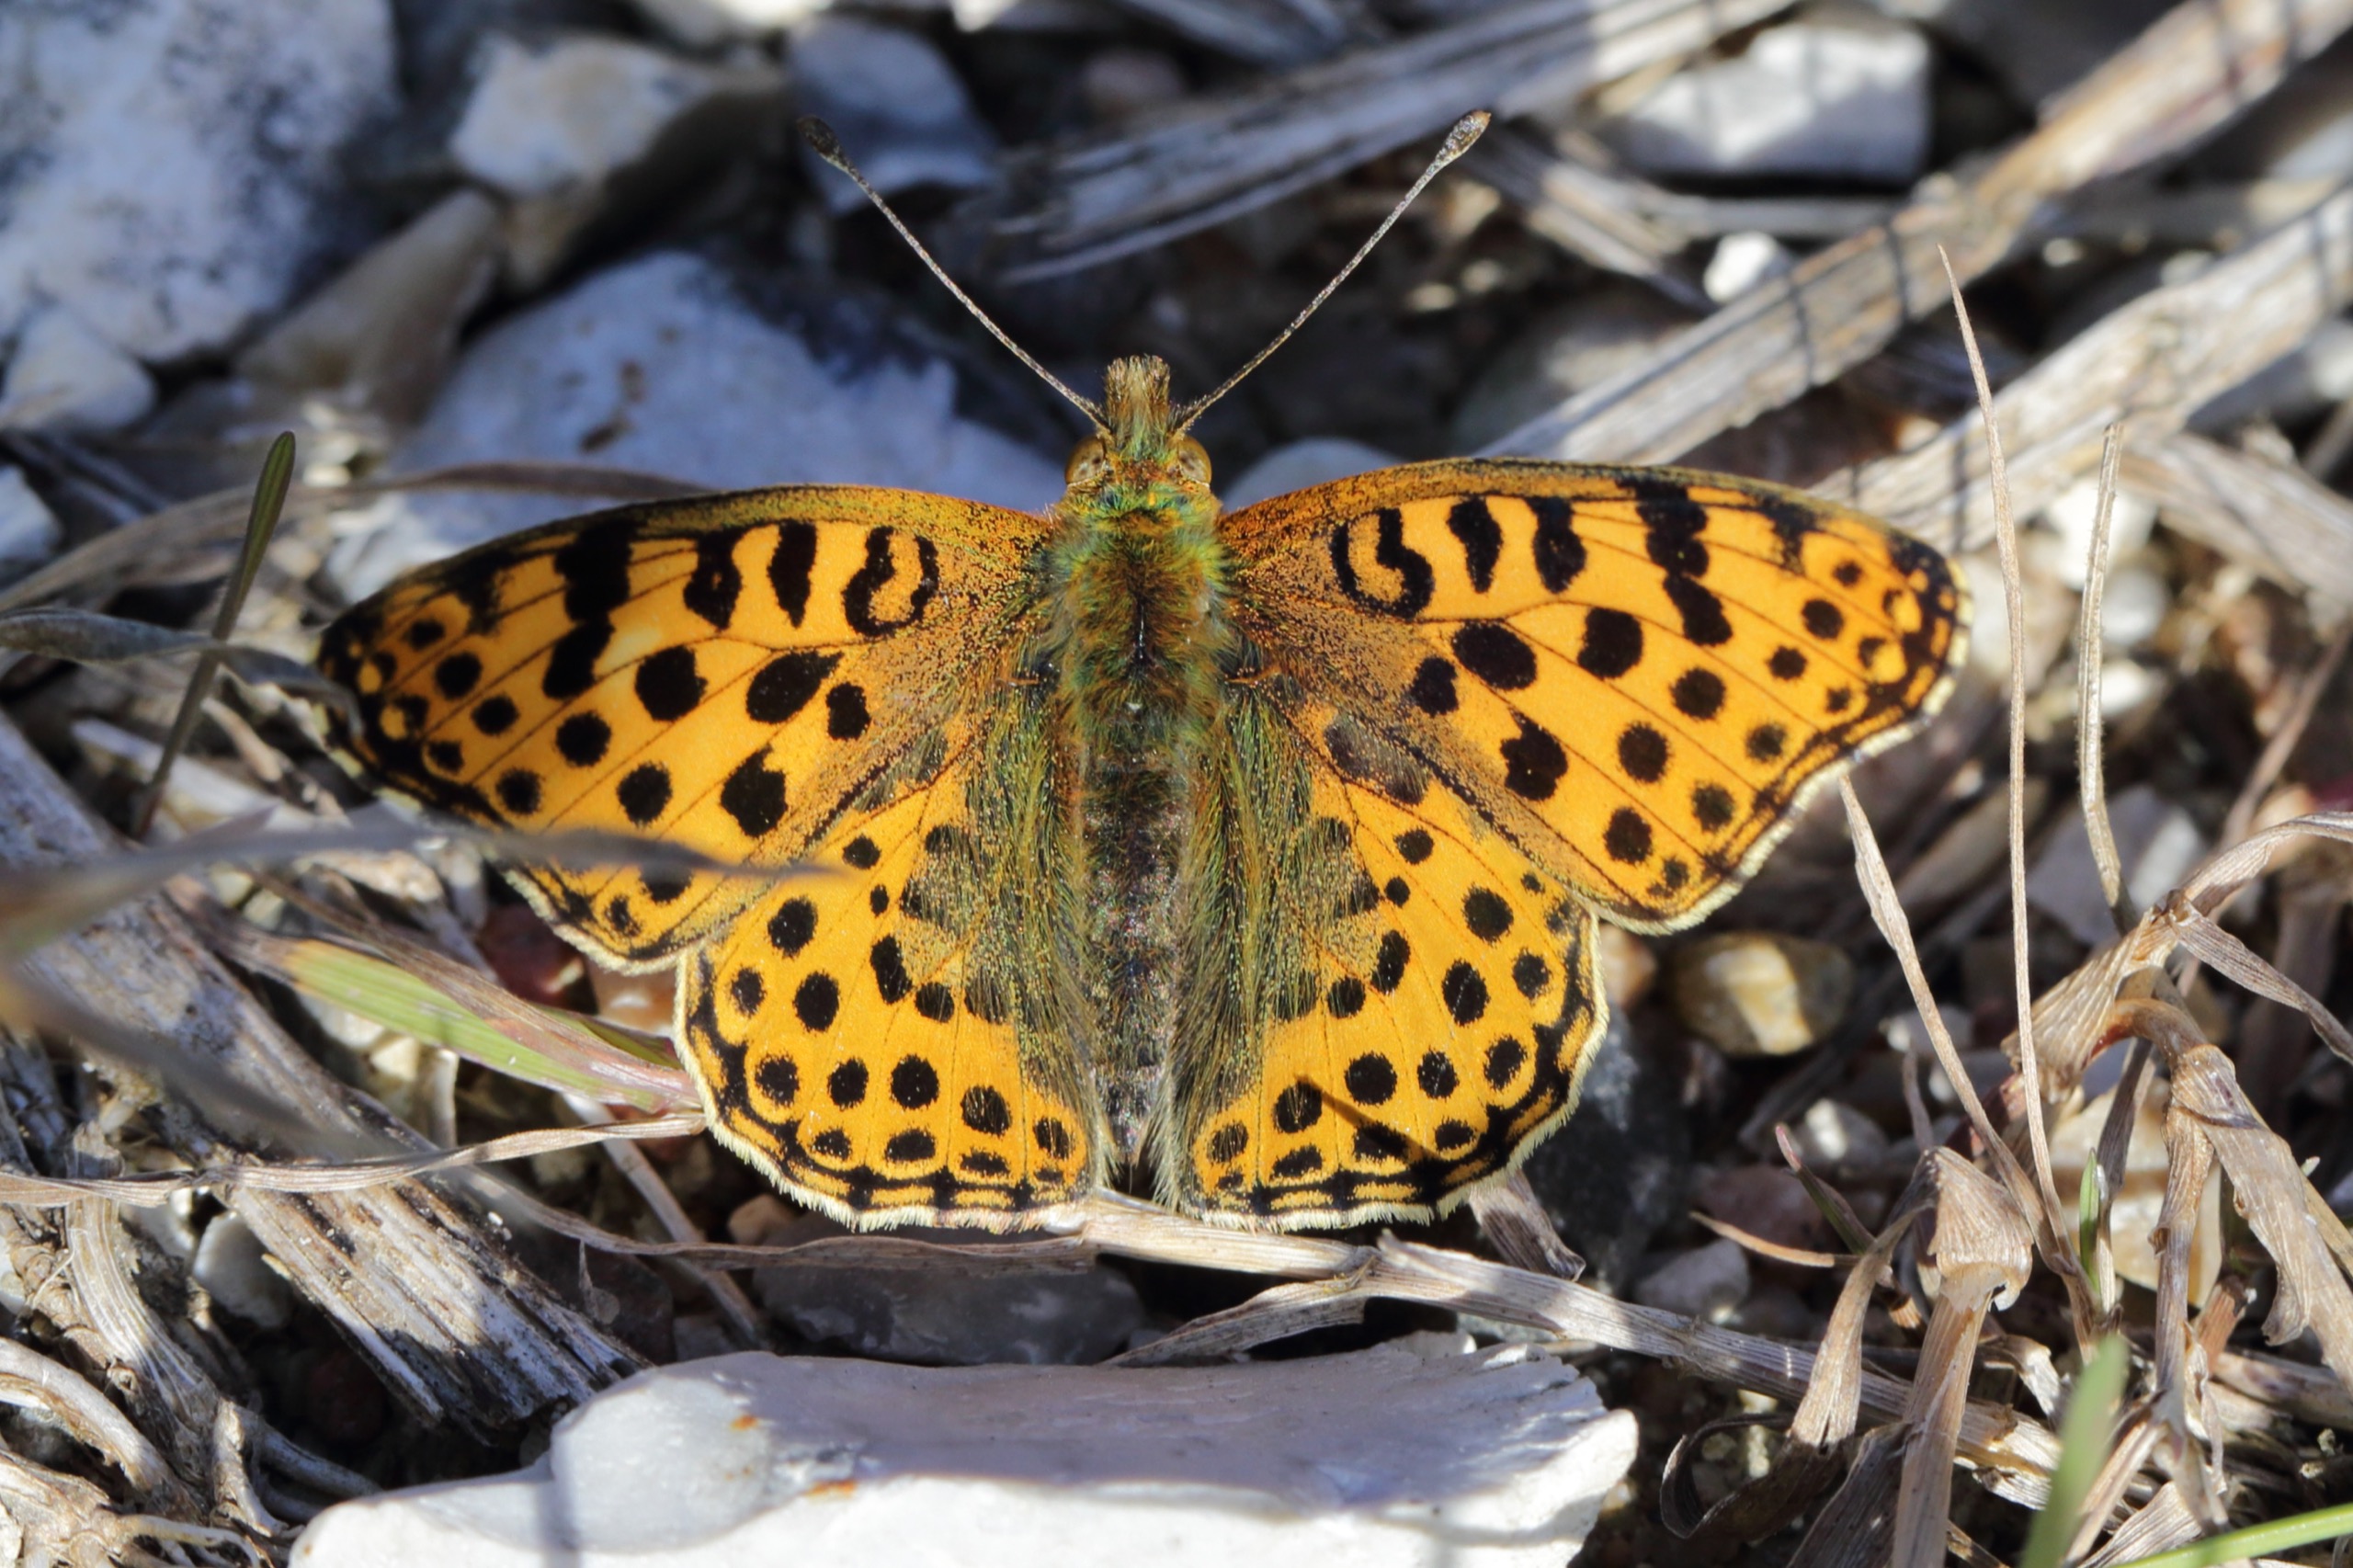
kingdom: Animalia
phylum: Arthropoda
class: Insecta
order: Lepidoptera
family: Nymphalidae
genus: Issoria
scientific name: Issoria lathonia
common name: Storplettet perlemorsommerfugl
